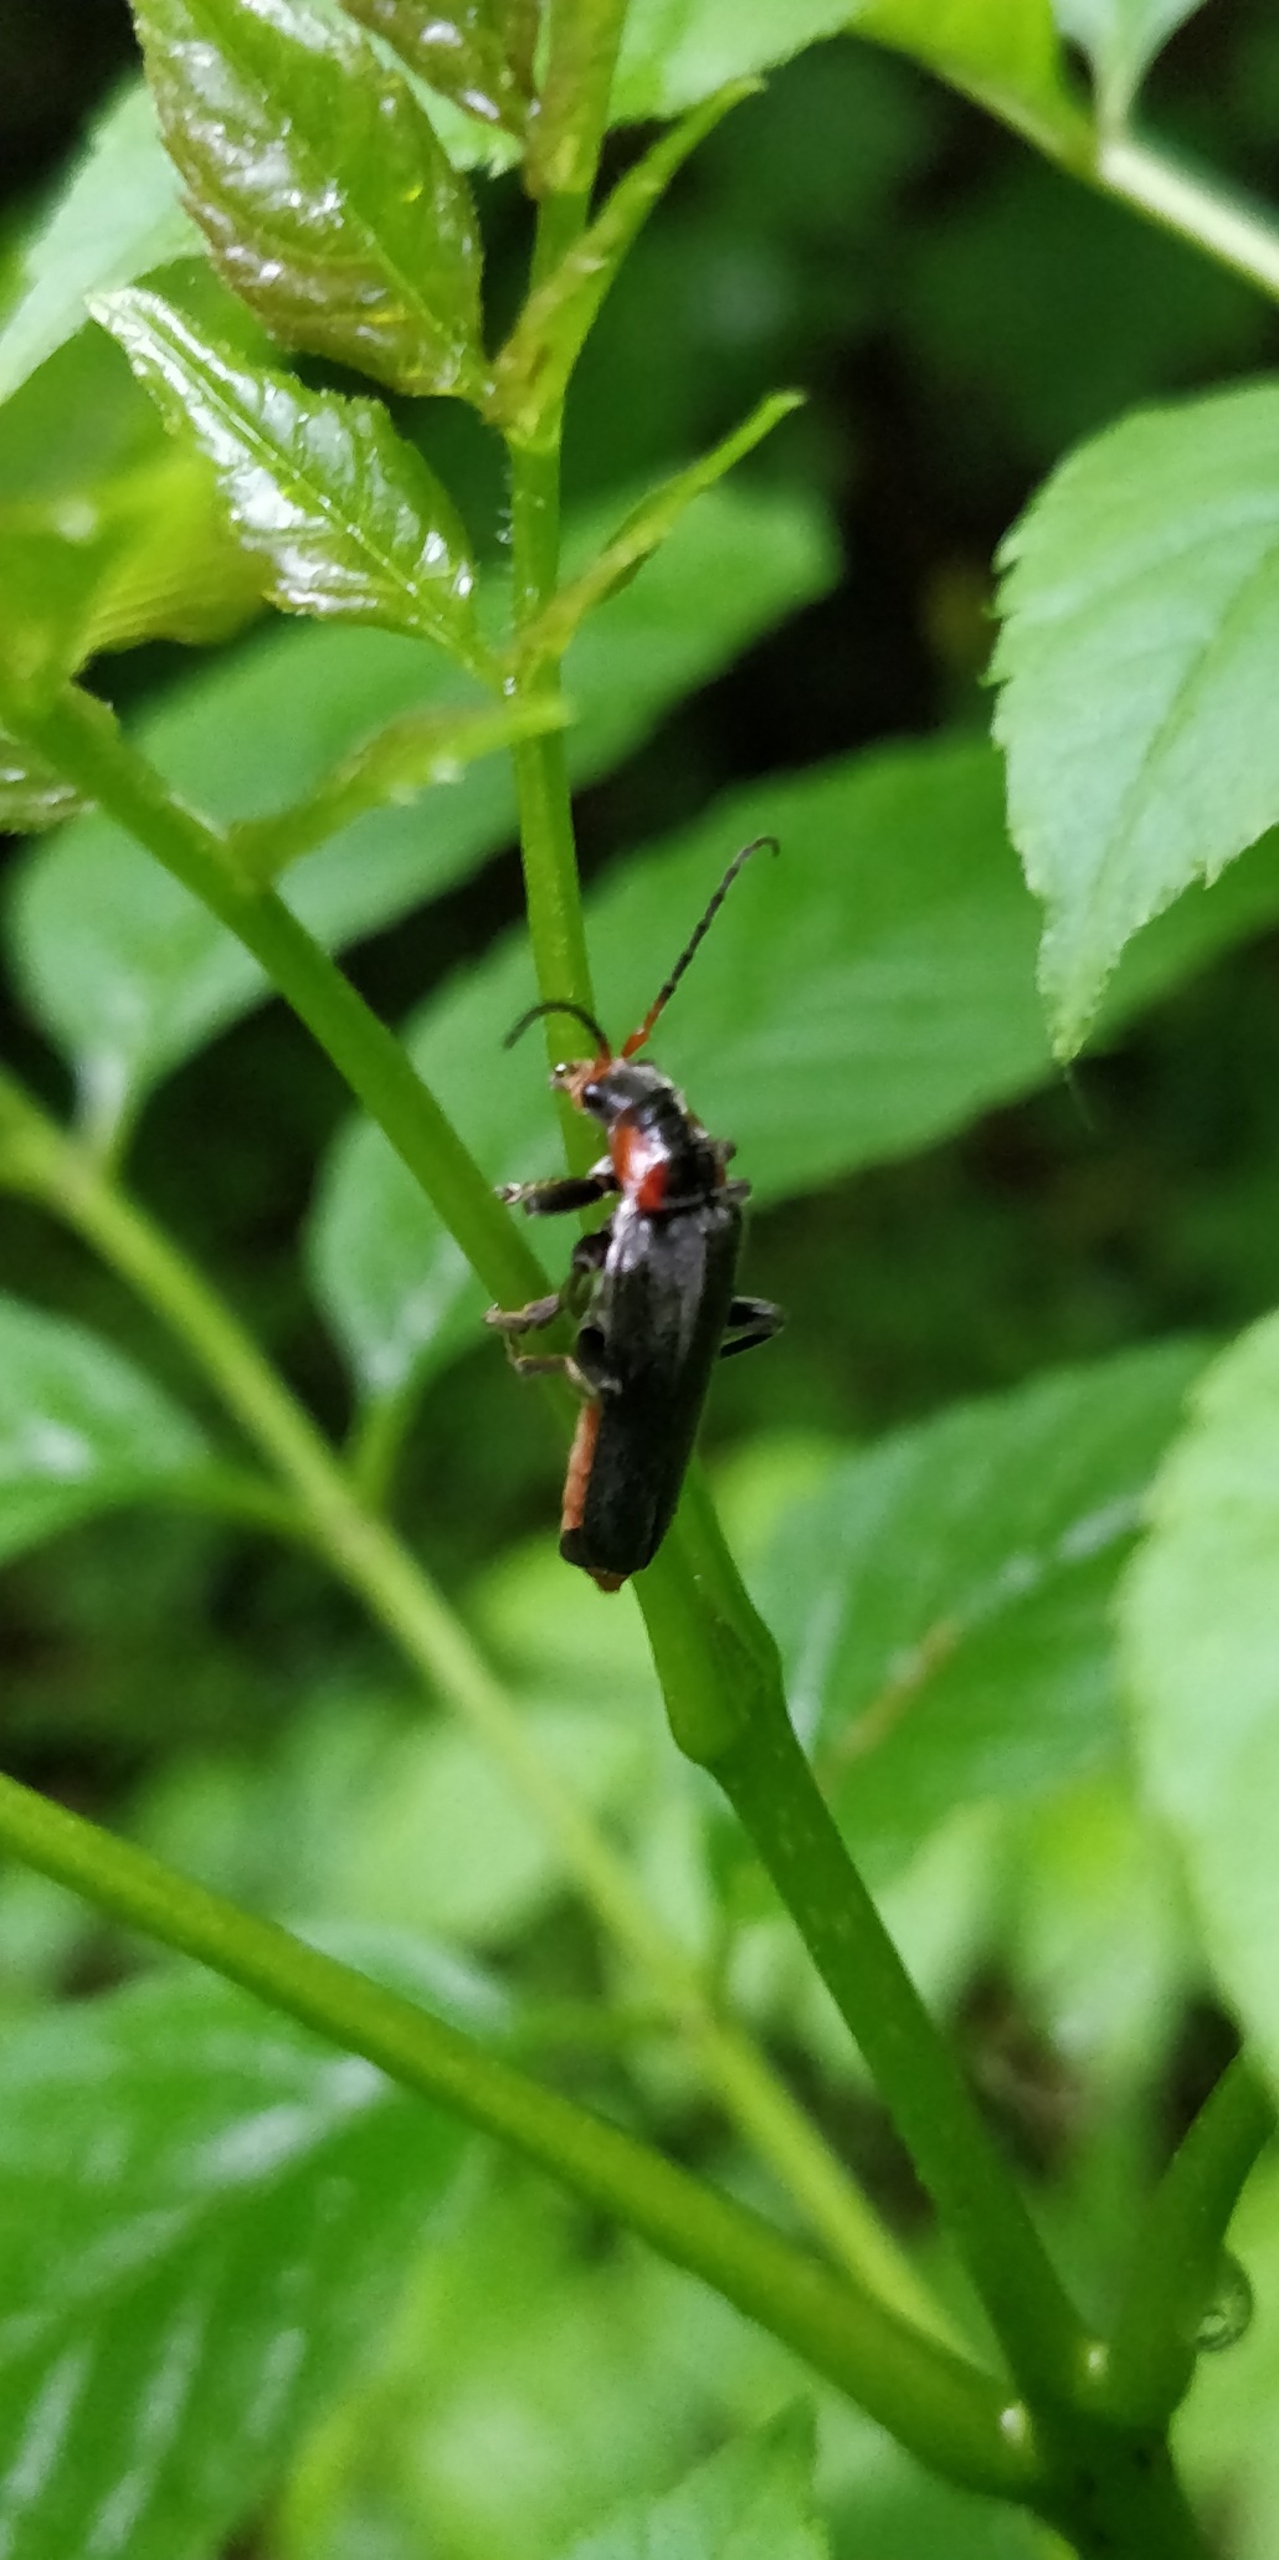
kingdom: Animalia
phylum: Arthropoda
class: Insecta
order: Coleoptera
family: Cantharidae
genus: Cantharis
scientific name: Cantharis fusca
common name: Stor blødvinge
